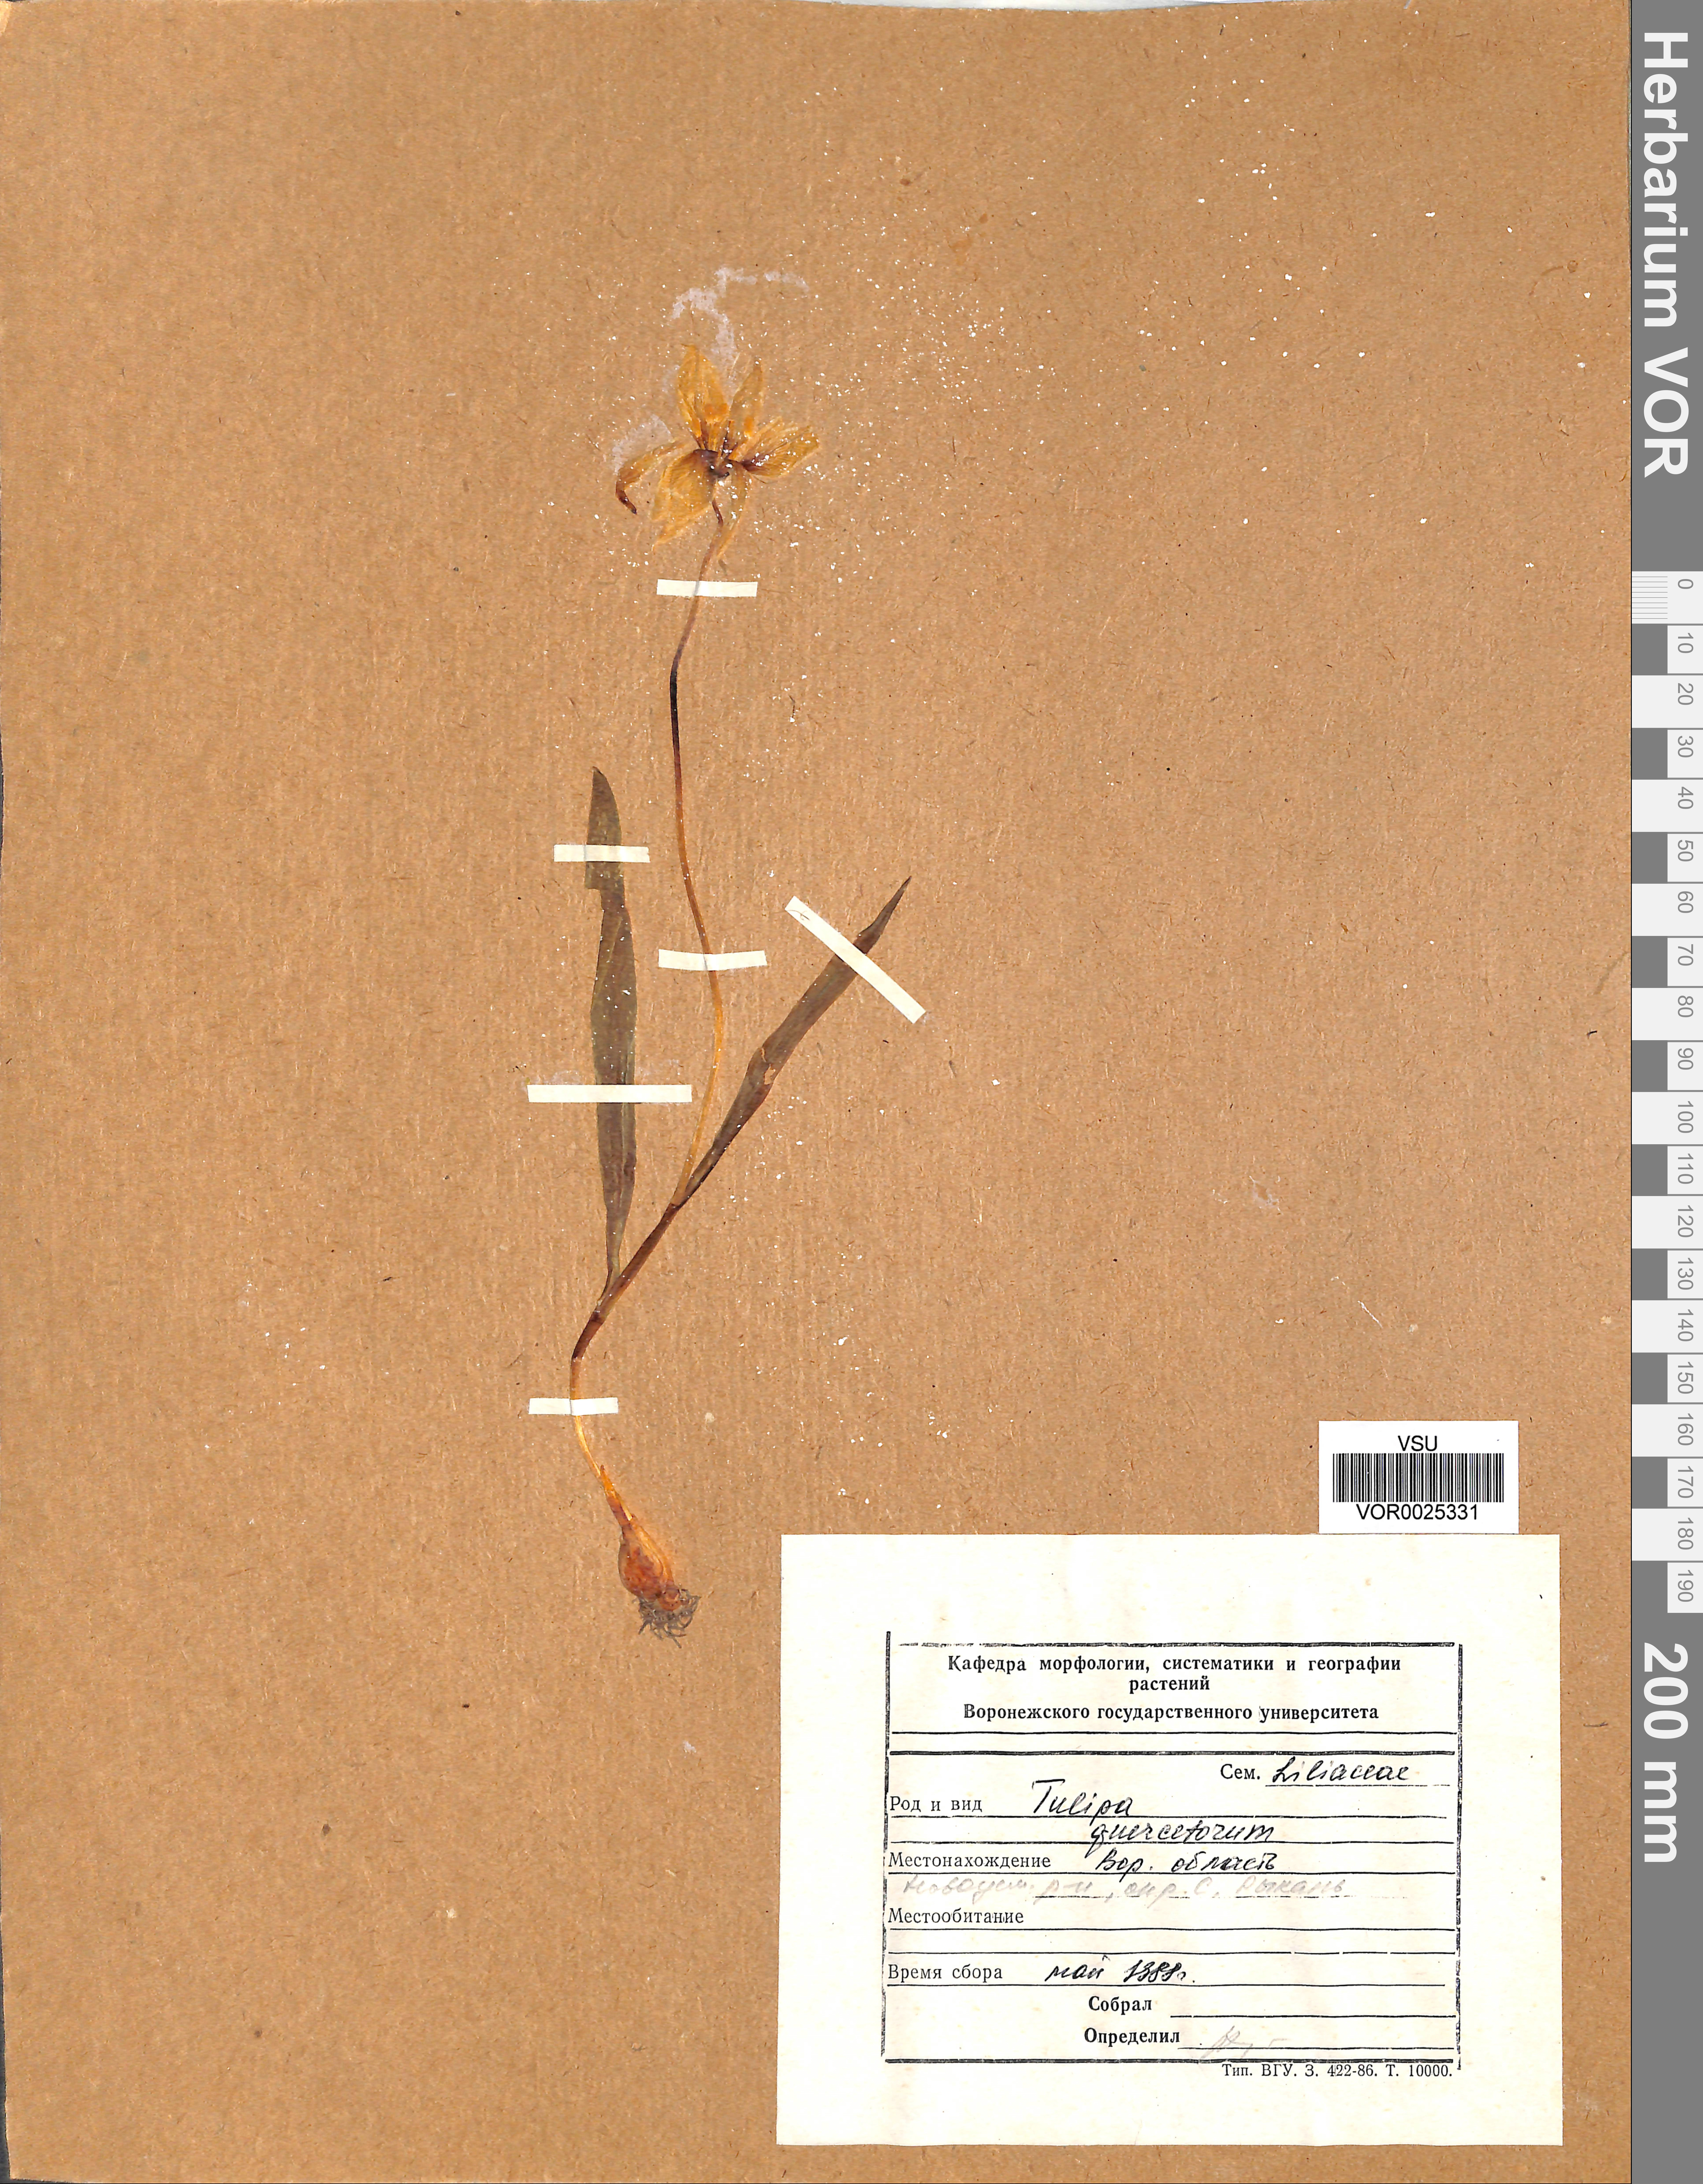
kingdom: Plantae
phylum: Tracheophyta
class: Liliopsida
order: Liliales
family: Liliaceae
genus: Tulipa
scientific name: Tulipa sylvestris
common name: Wild tulip
